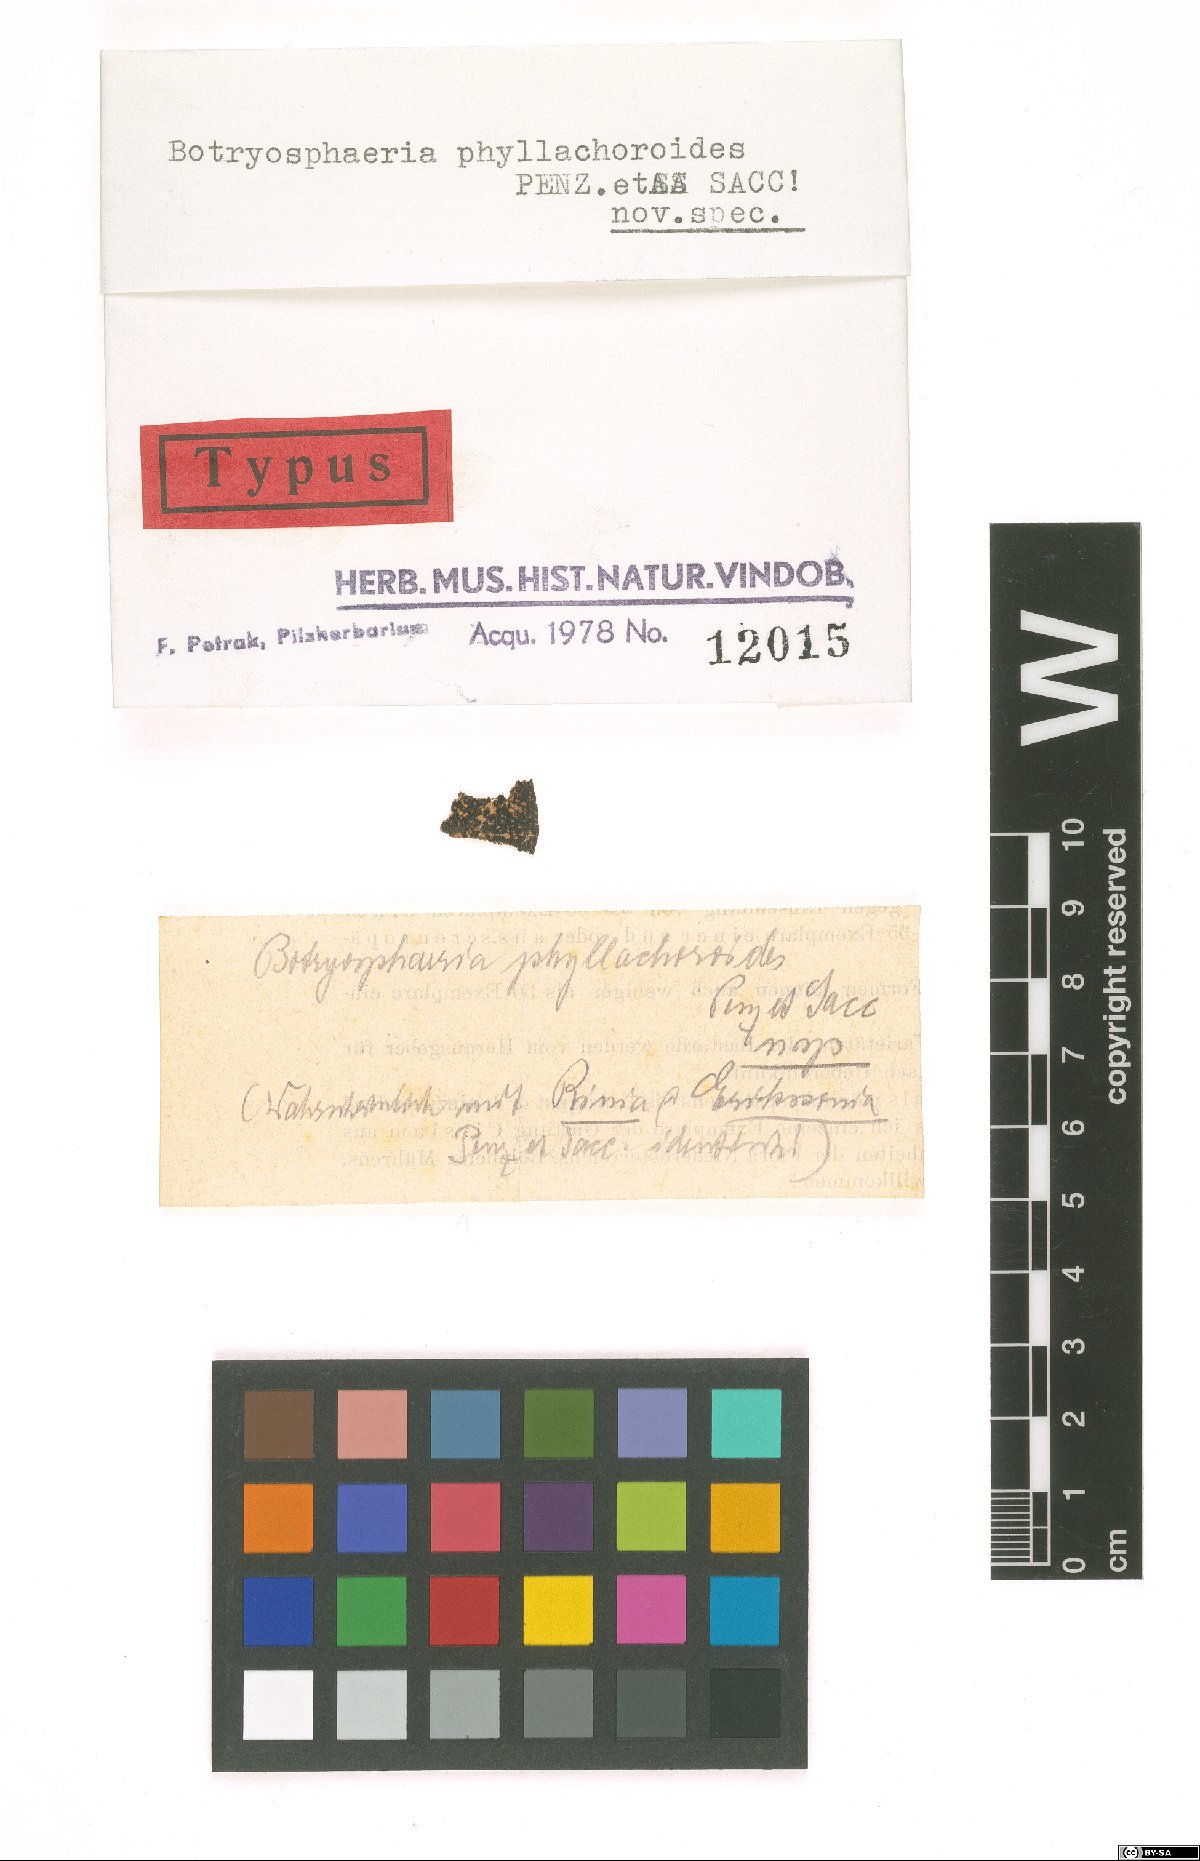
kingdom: Fungi
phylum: Ascomycota
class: Dothideomycetes
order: Botryosphaeriales
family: Botryosphaeriaceae
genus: Melanops
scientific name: Melanops phyllachoroidea
